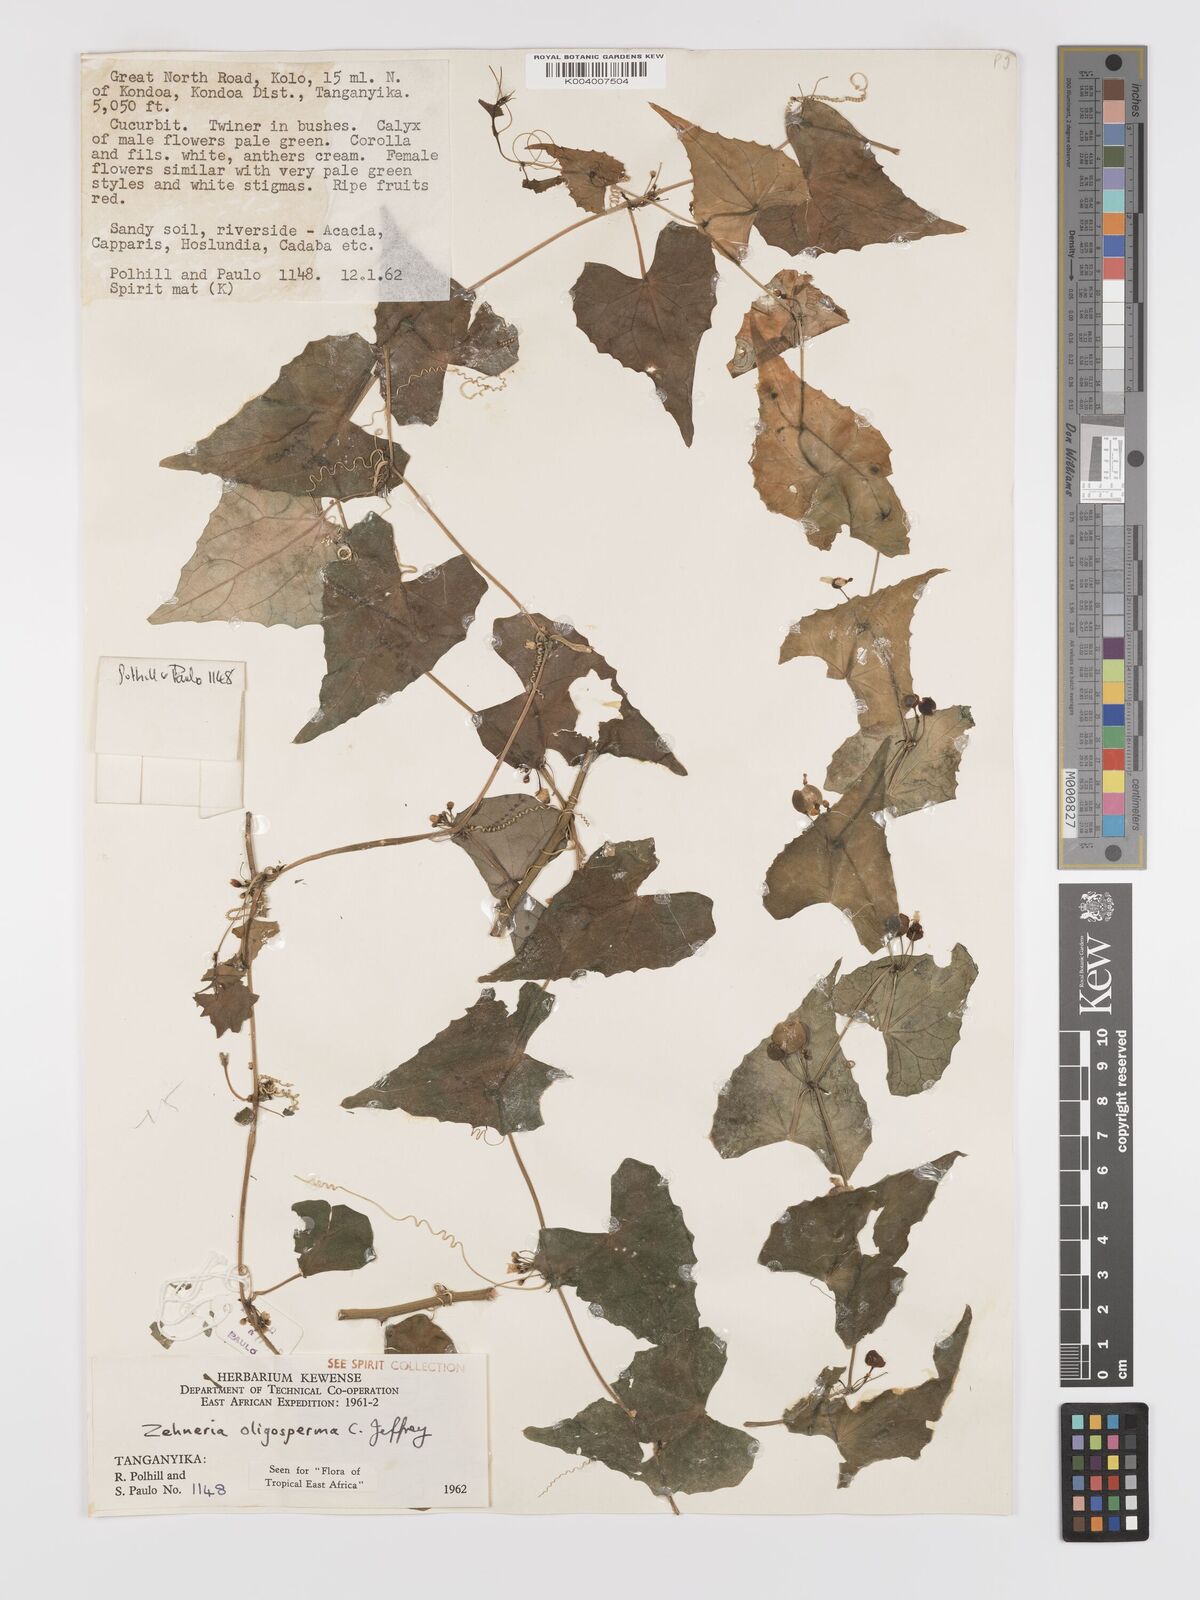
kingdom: Plantae
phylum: Tracheophyta
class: Magnoliopsida
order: Cucurbitales
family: Cucurbitaceae
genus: Zehneria
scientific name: Zehneria oligosperma
